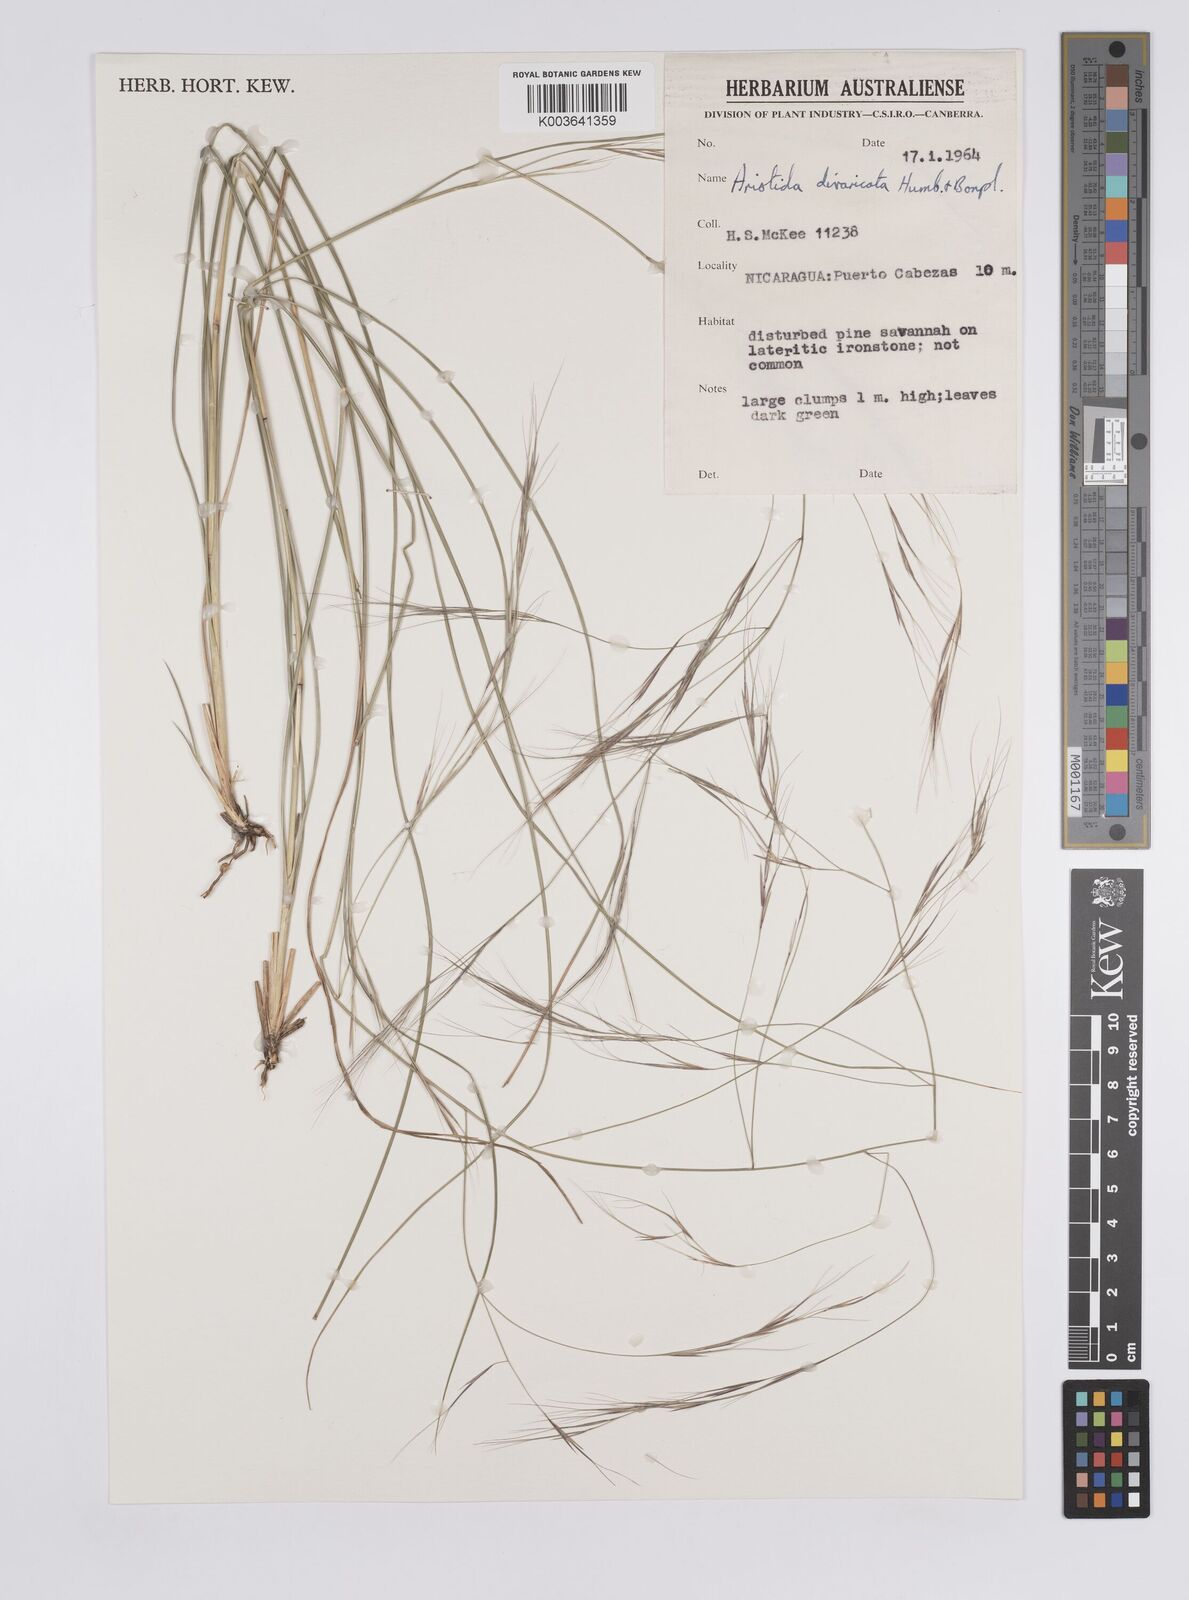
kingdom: Plantae
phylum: Tracheophyta
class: Liliopsida
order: Poales
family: Poaceae
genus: Aristida
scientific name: Aristida divaricata
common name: Poverty grass
